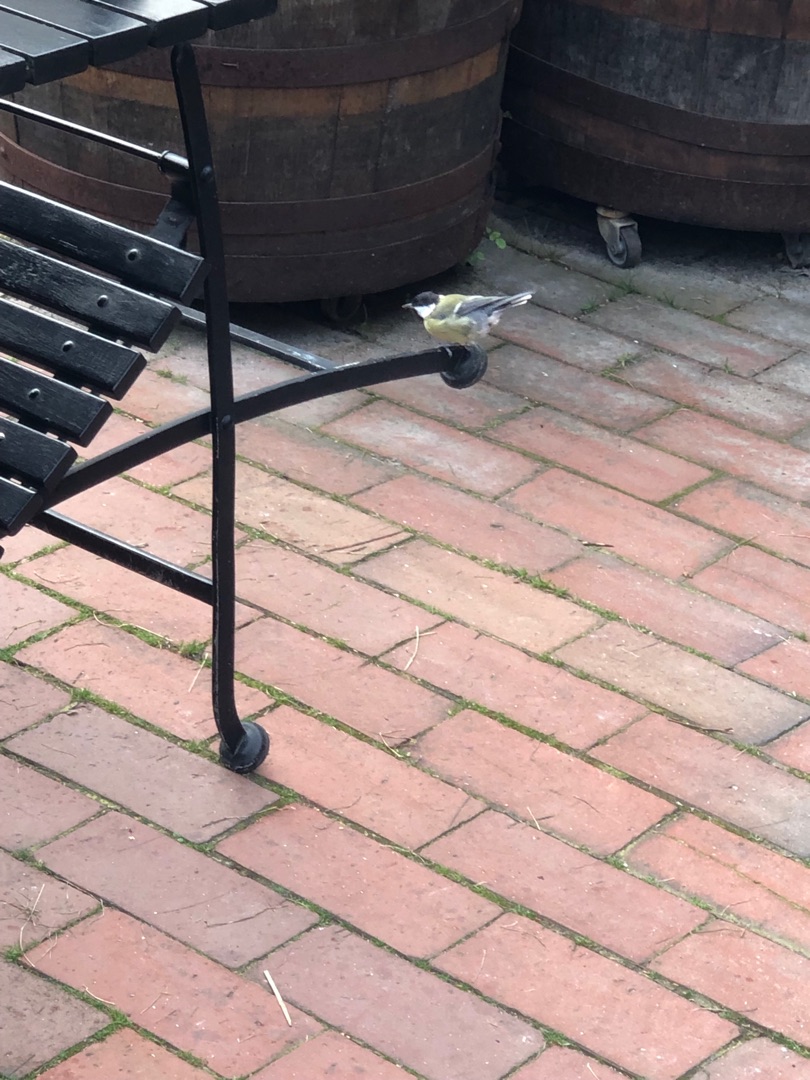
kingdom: Animalia
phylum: Chordata
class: Aves
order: Passeriformes
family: Paridae
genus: Parus
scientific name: Parus major
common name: Musvit
